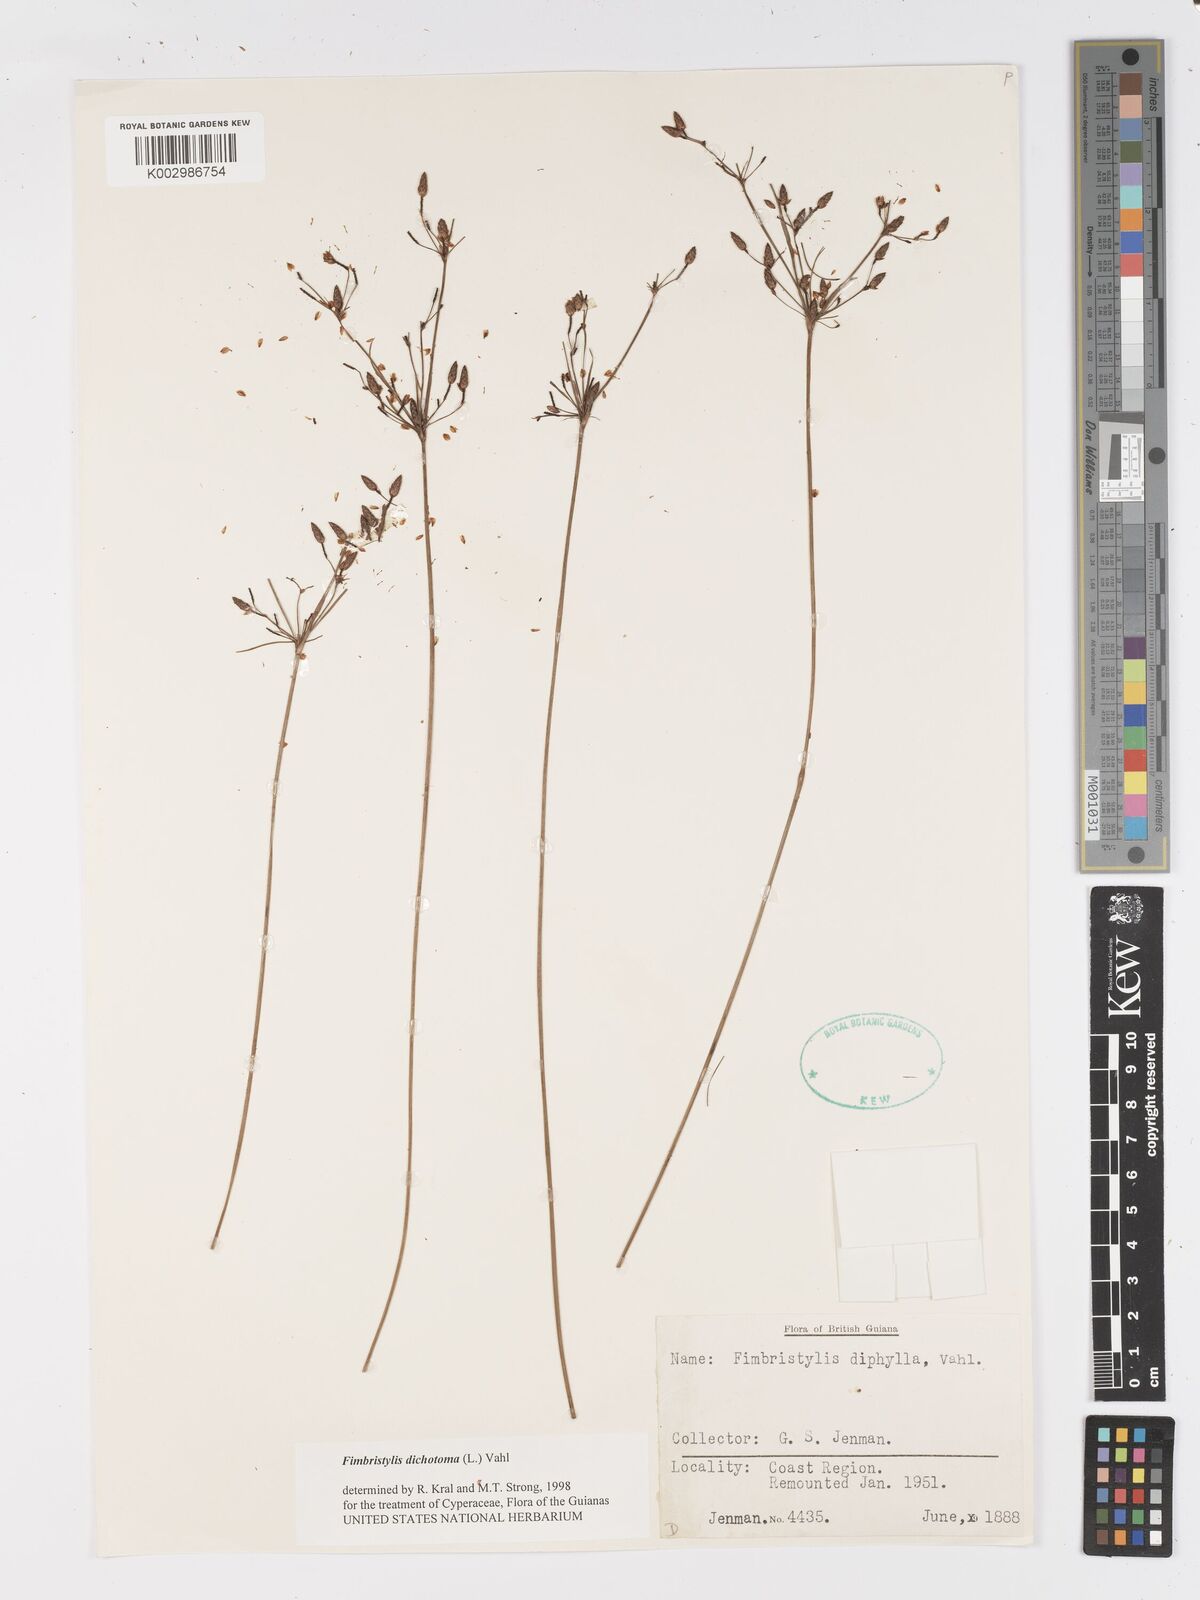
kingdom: Plantae
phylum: Tracheophyta
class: Liliopsida
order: Poales
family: Cyperaceae
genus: Fimbristylis
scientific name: Fimbristylis dichotoma
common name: Forked fimbry
